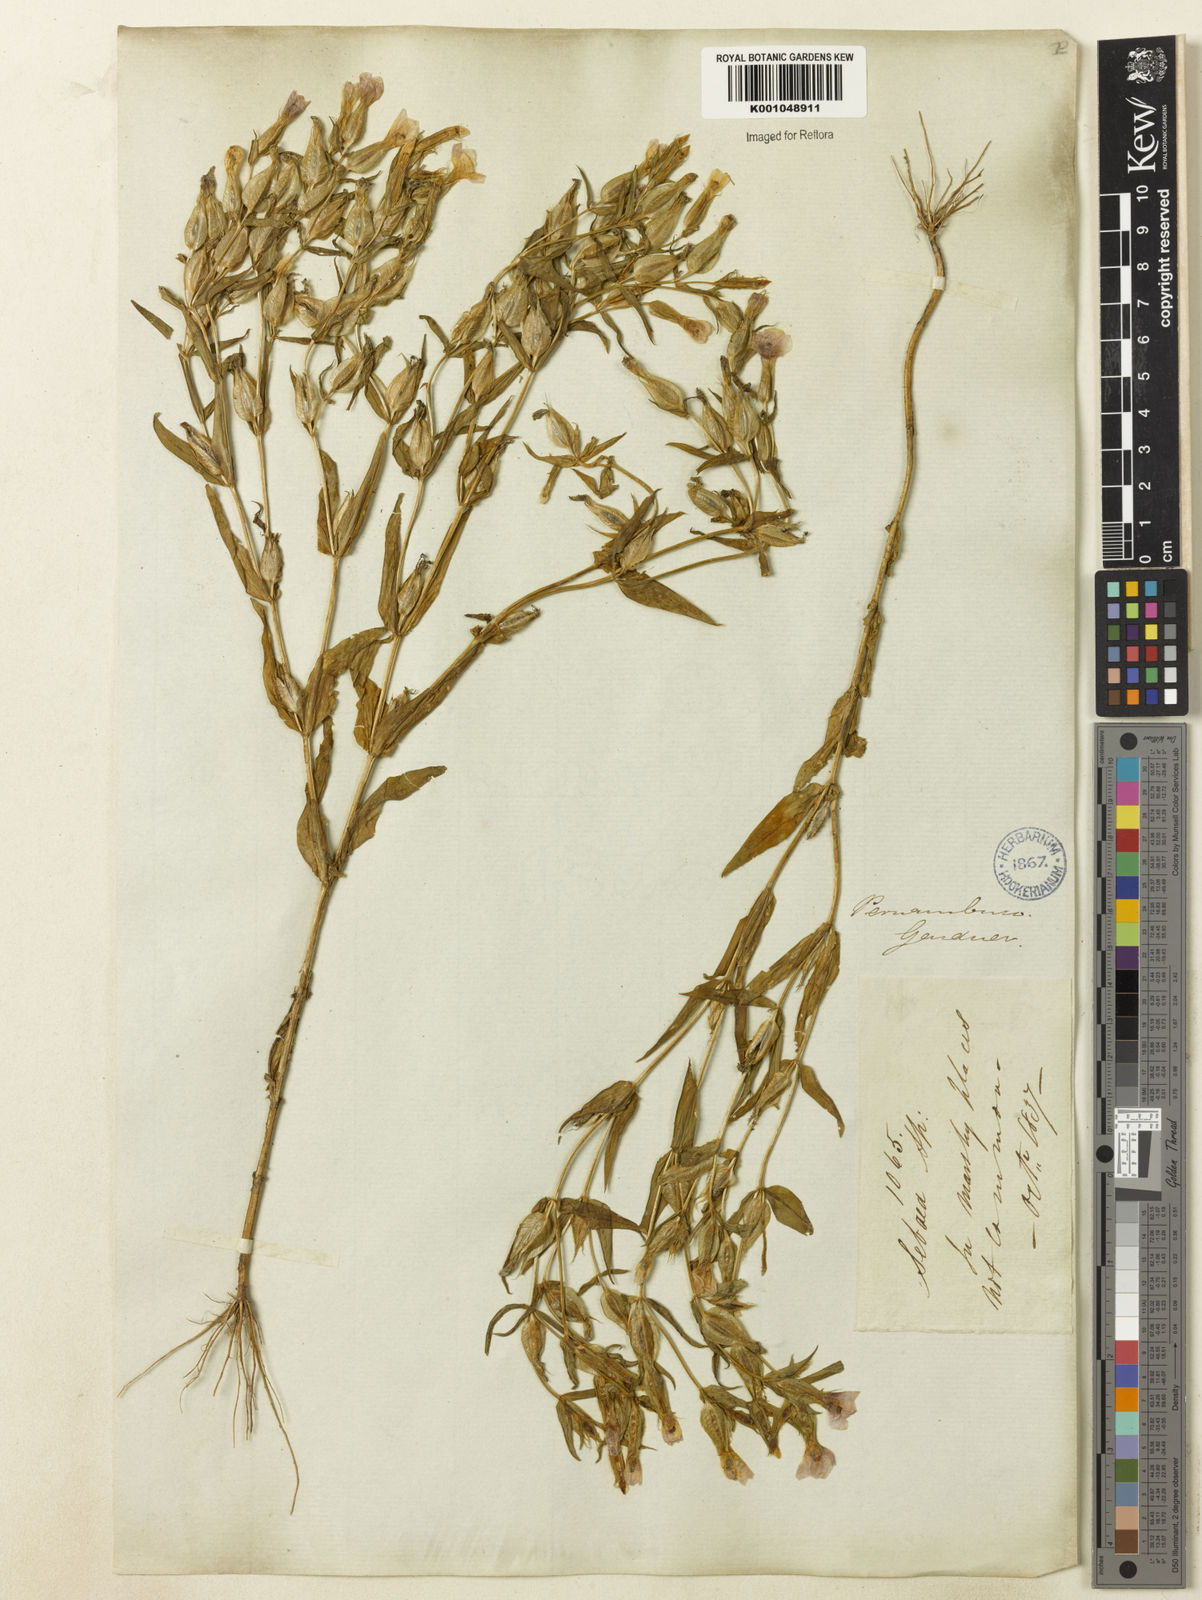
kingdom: Plantae
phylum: Tracheophyta
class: Magnoliopsida
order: Gentianales
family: Gentianaceae
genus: Schultesia
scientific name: Schultesia
